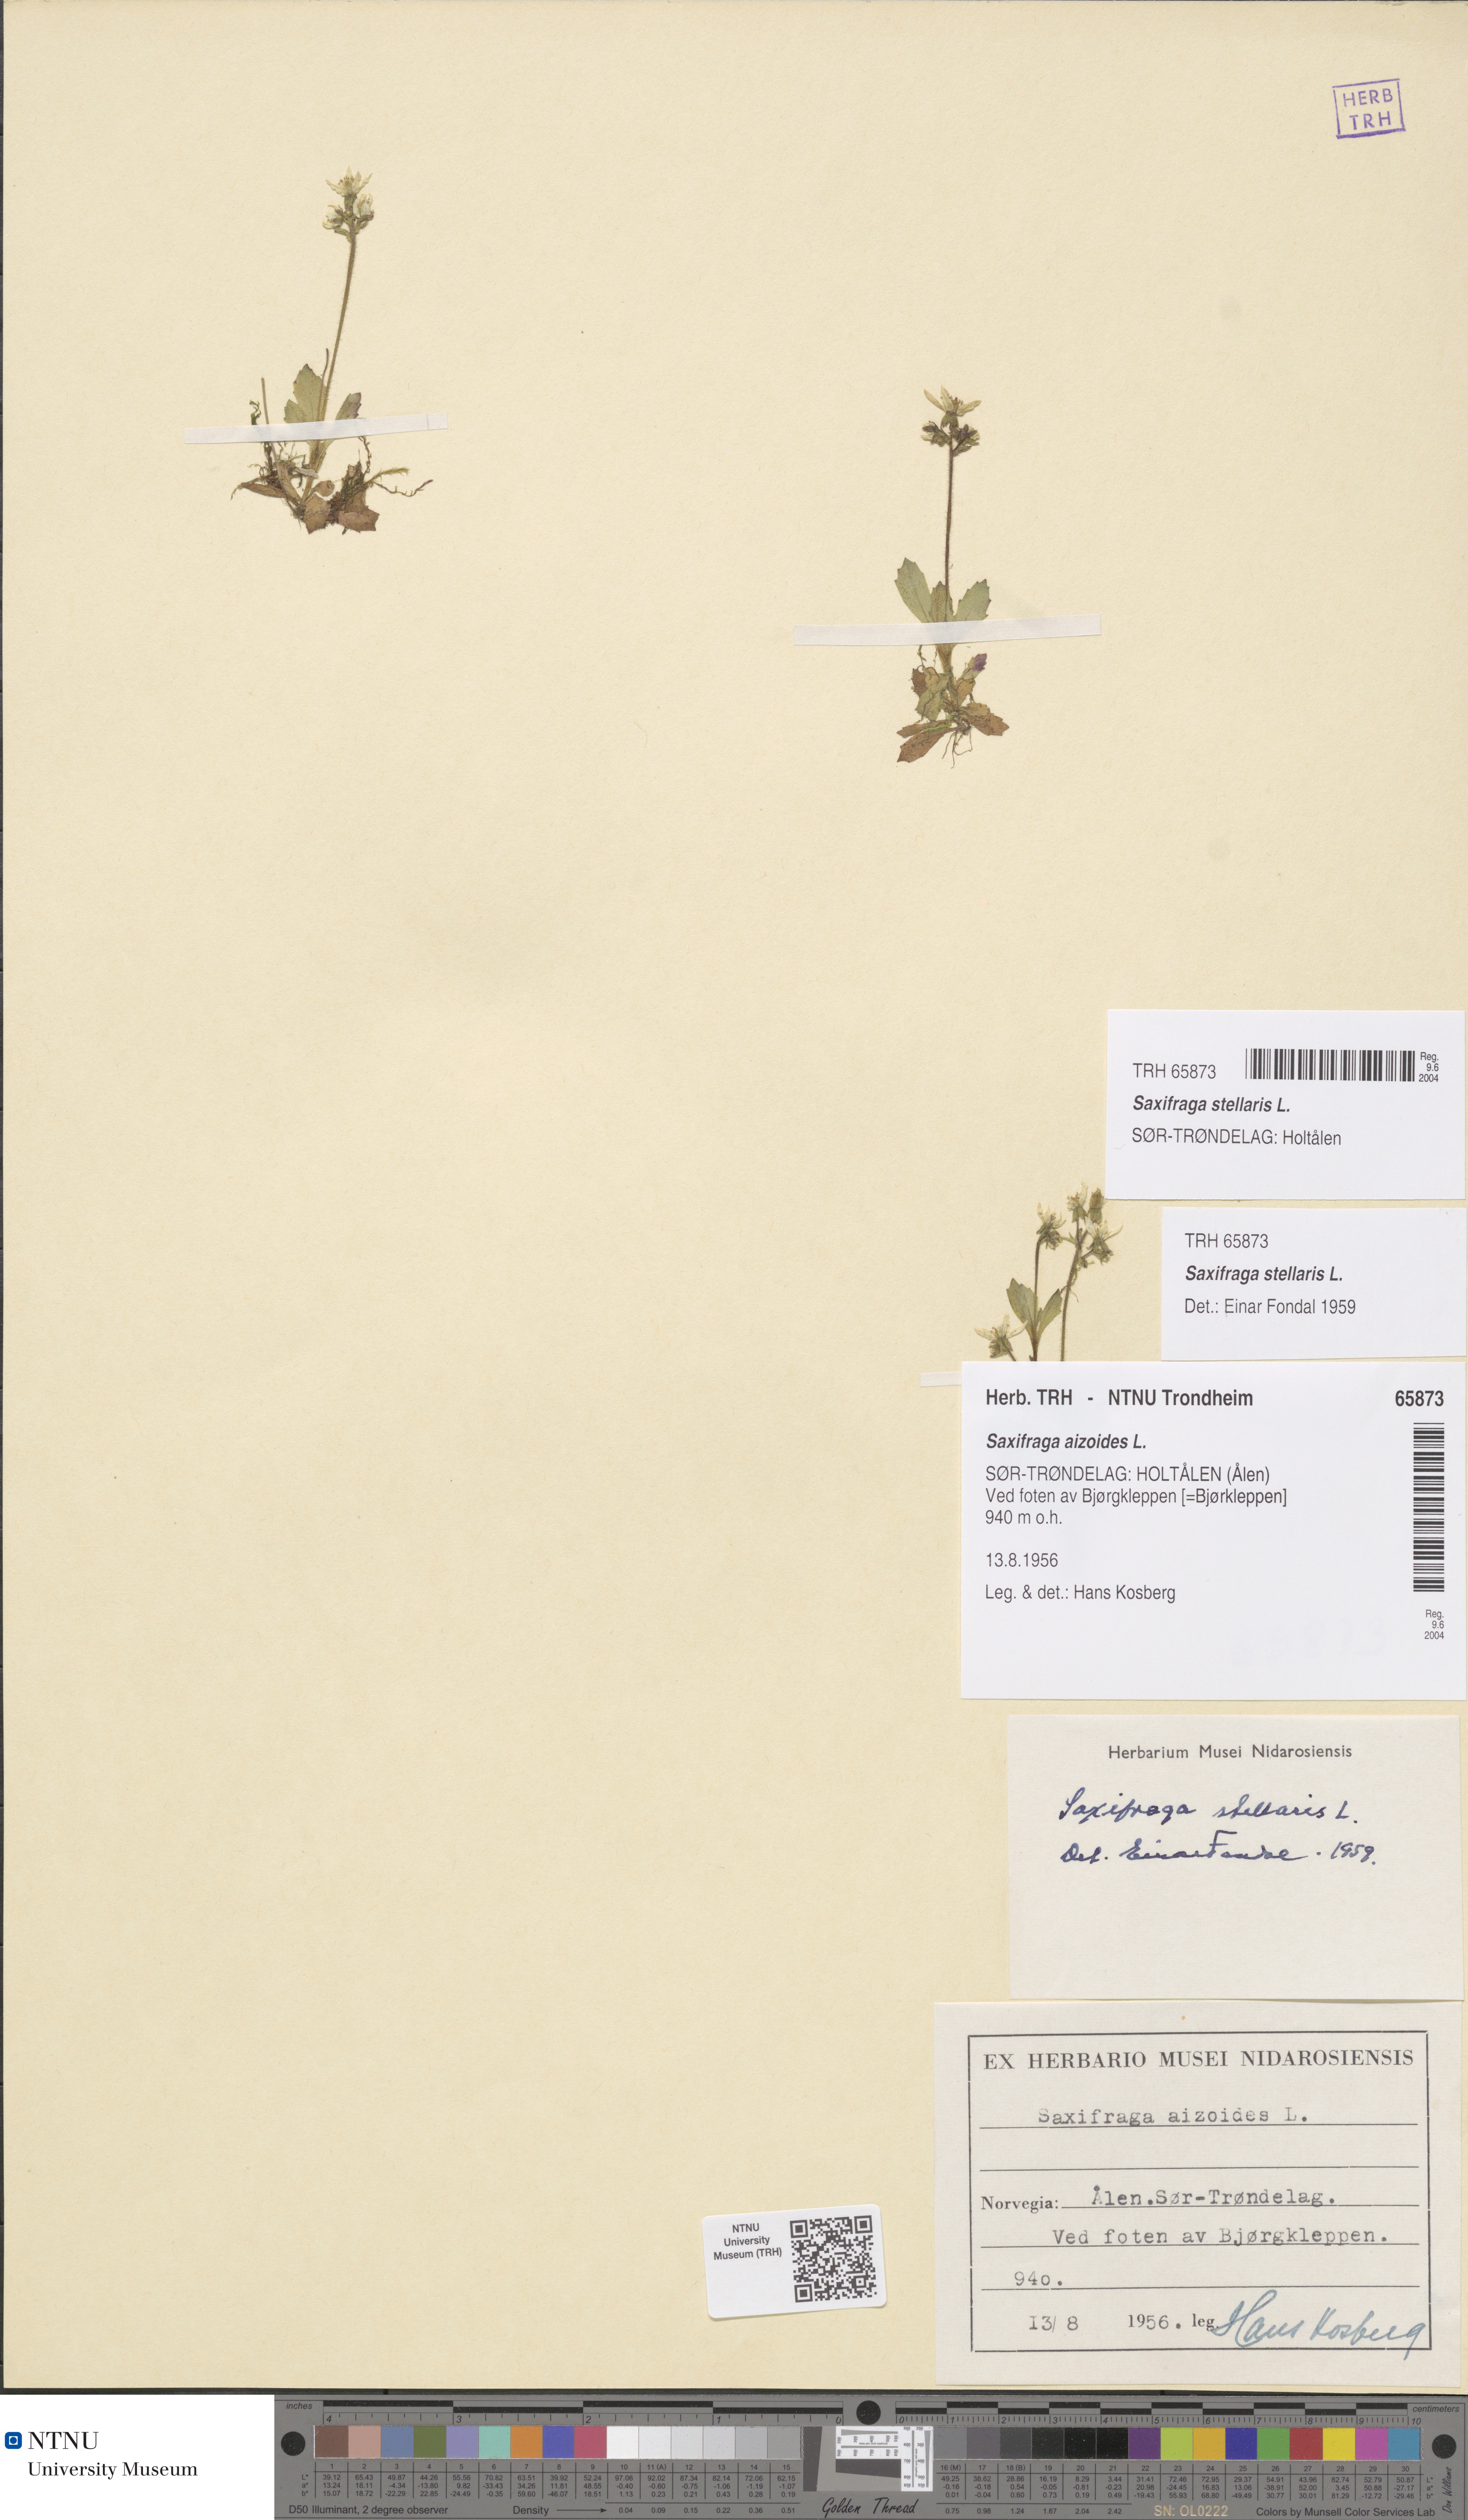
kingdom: Plantae
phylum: Tracheophyta
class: Magnoliopsida
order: Saxifragales
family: Saxifragaceae
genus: Micranthes
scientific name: Micranthes stellaris
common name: Starry saxifrage
